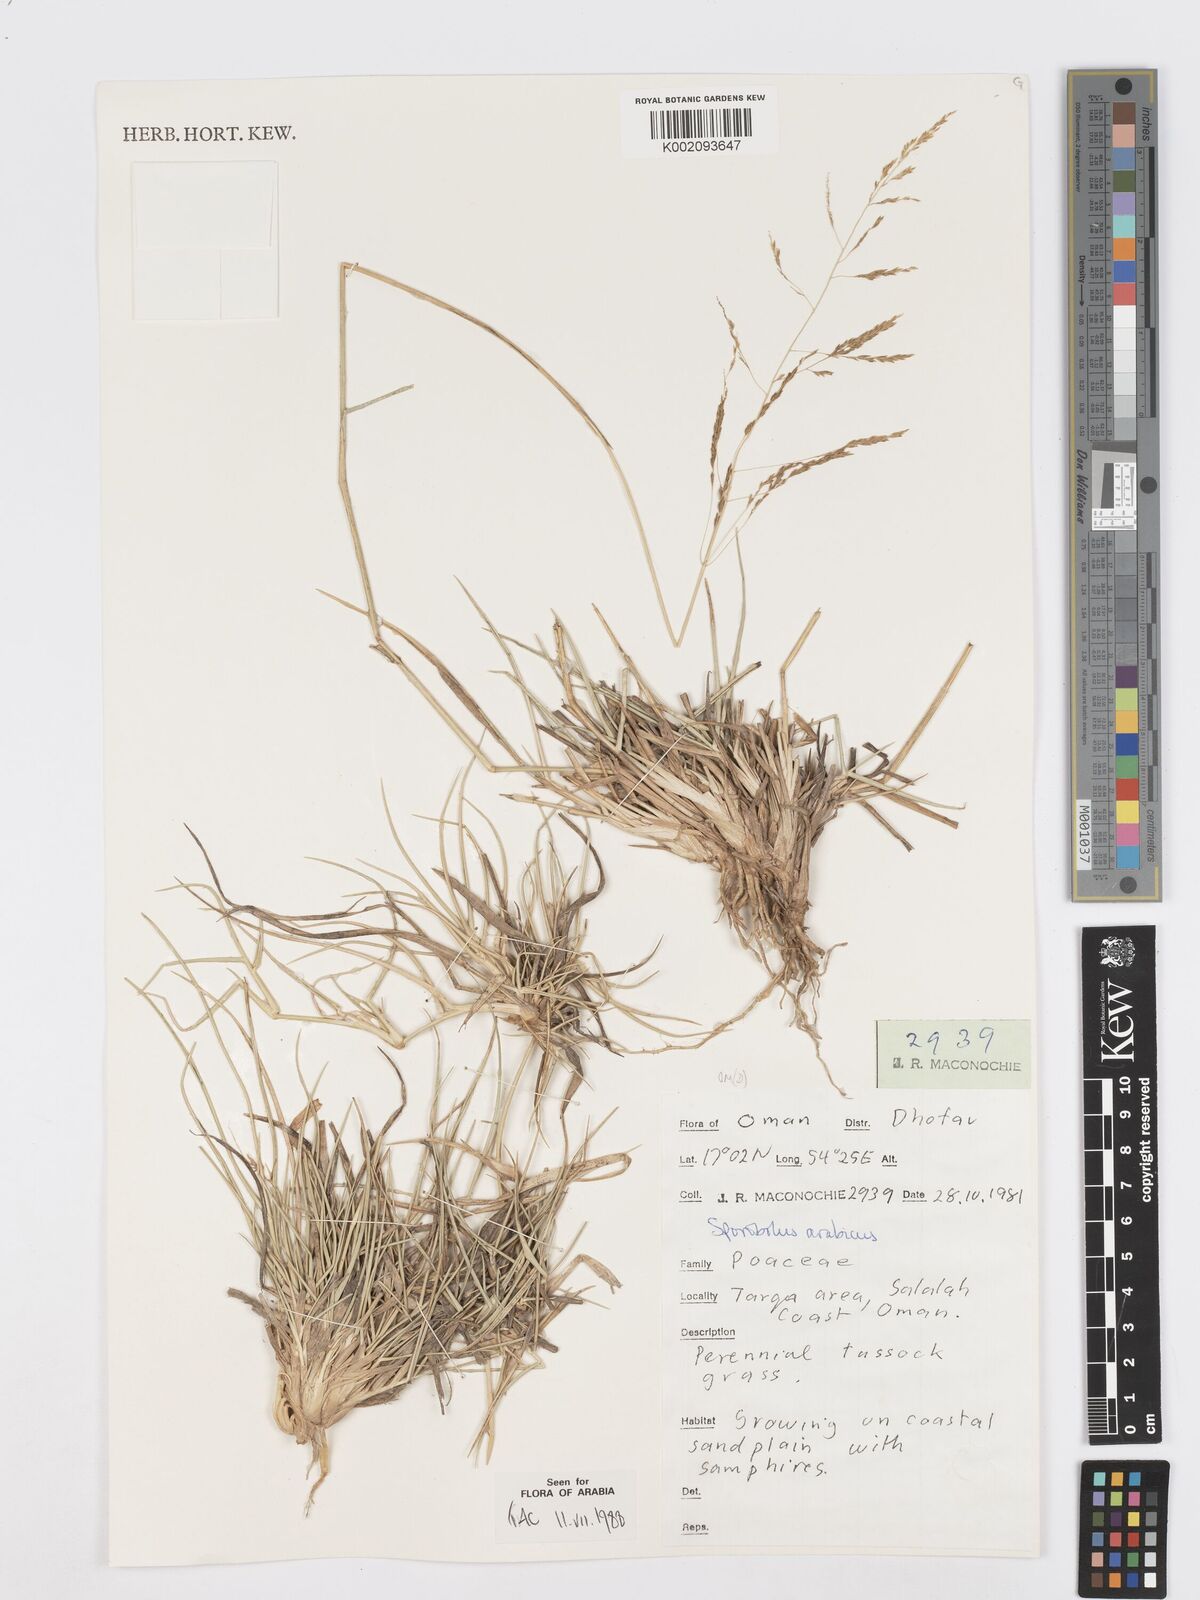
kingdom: Plantae
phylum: Tracheophyta
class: Liliopsida
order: Poales
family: Poaceae
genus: Sporobolus
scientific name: Sporobolus ioclados
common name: Pan dropseed
